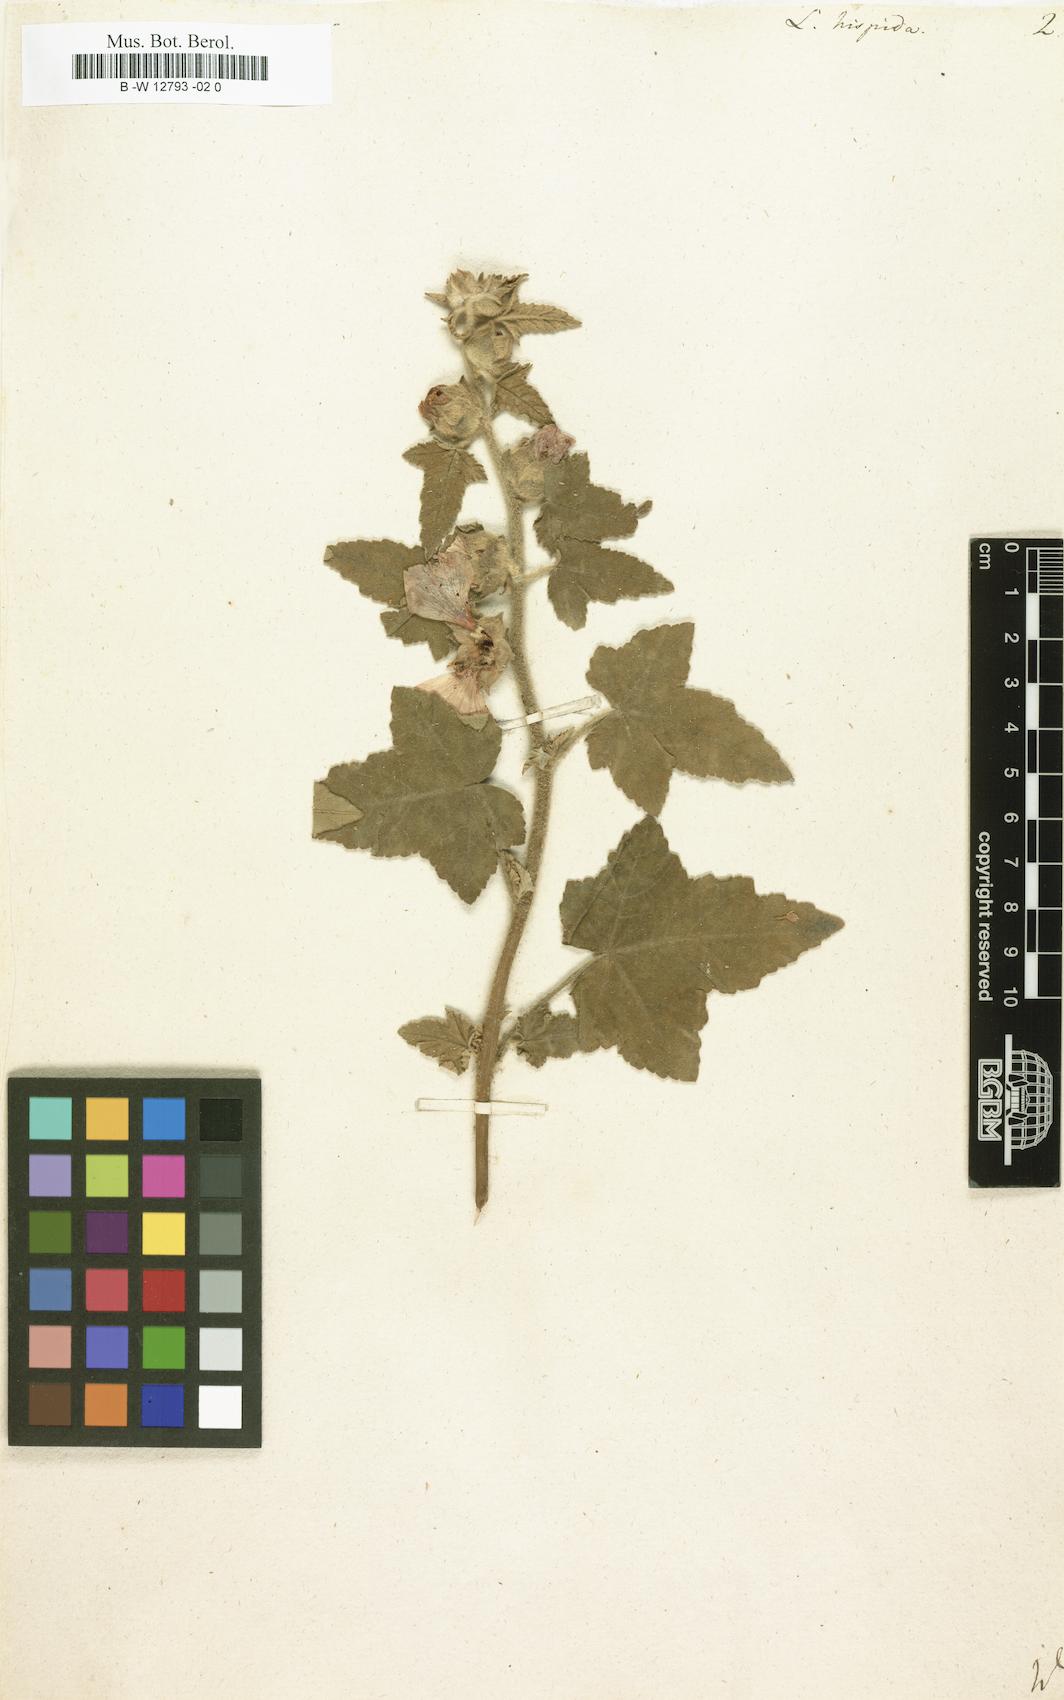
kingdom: Plantae
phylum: Tracheophyta
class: Magnoliopsida
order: Malvales
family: Malvaceae
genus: Malva
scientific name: Malva
